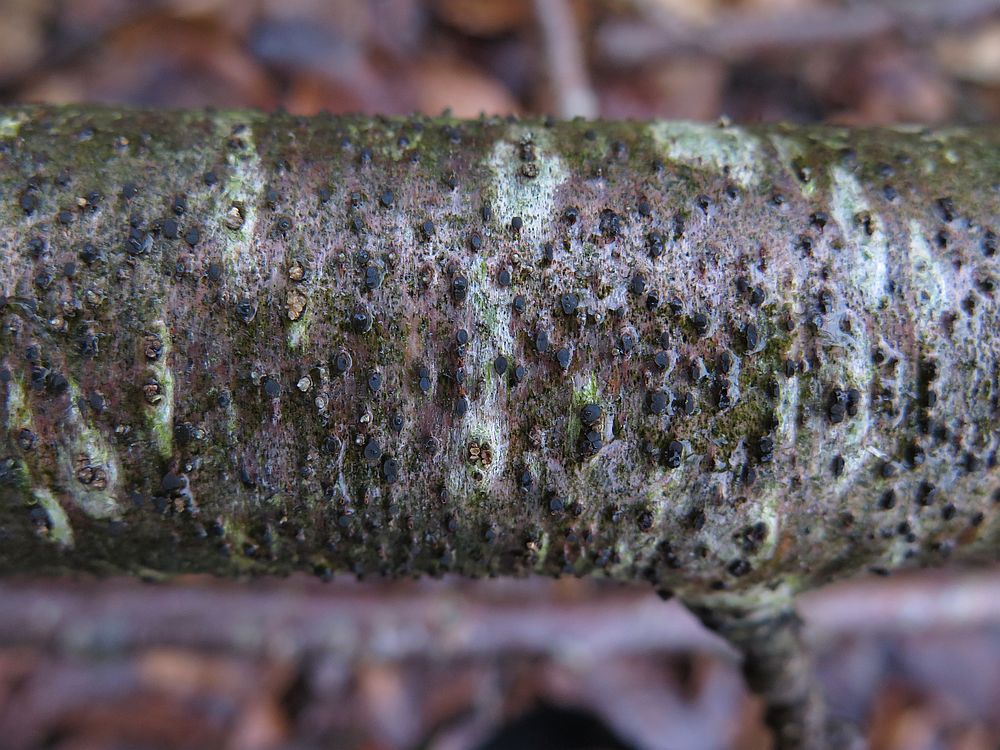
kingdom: Fungi
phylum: Ascomycota
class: Leotiomycetes
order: Helotiales
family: Dermateaceae
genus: Dermea
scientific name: Dermea ariae
